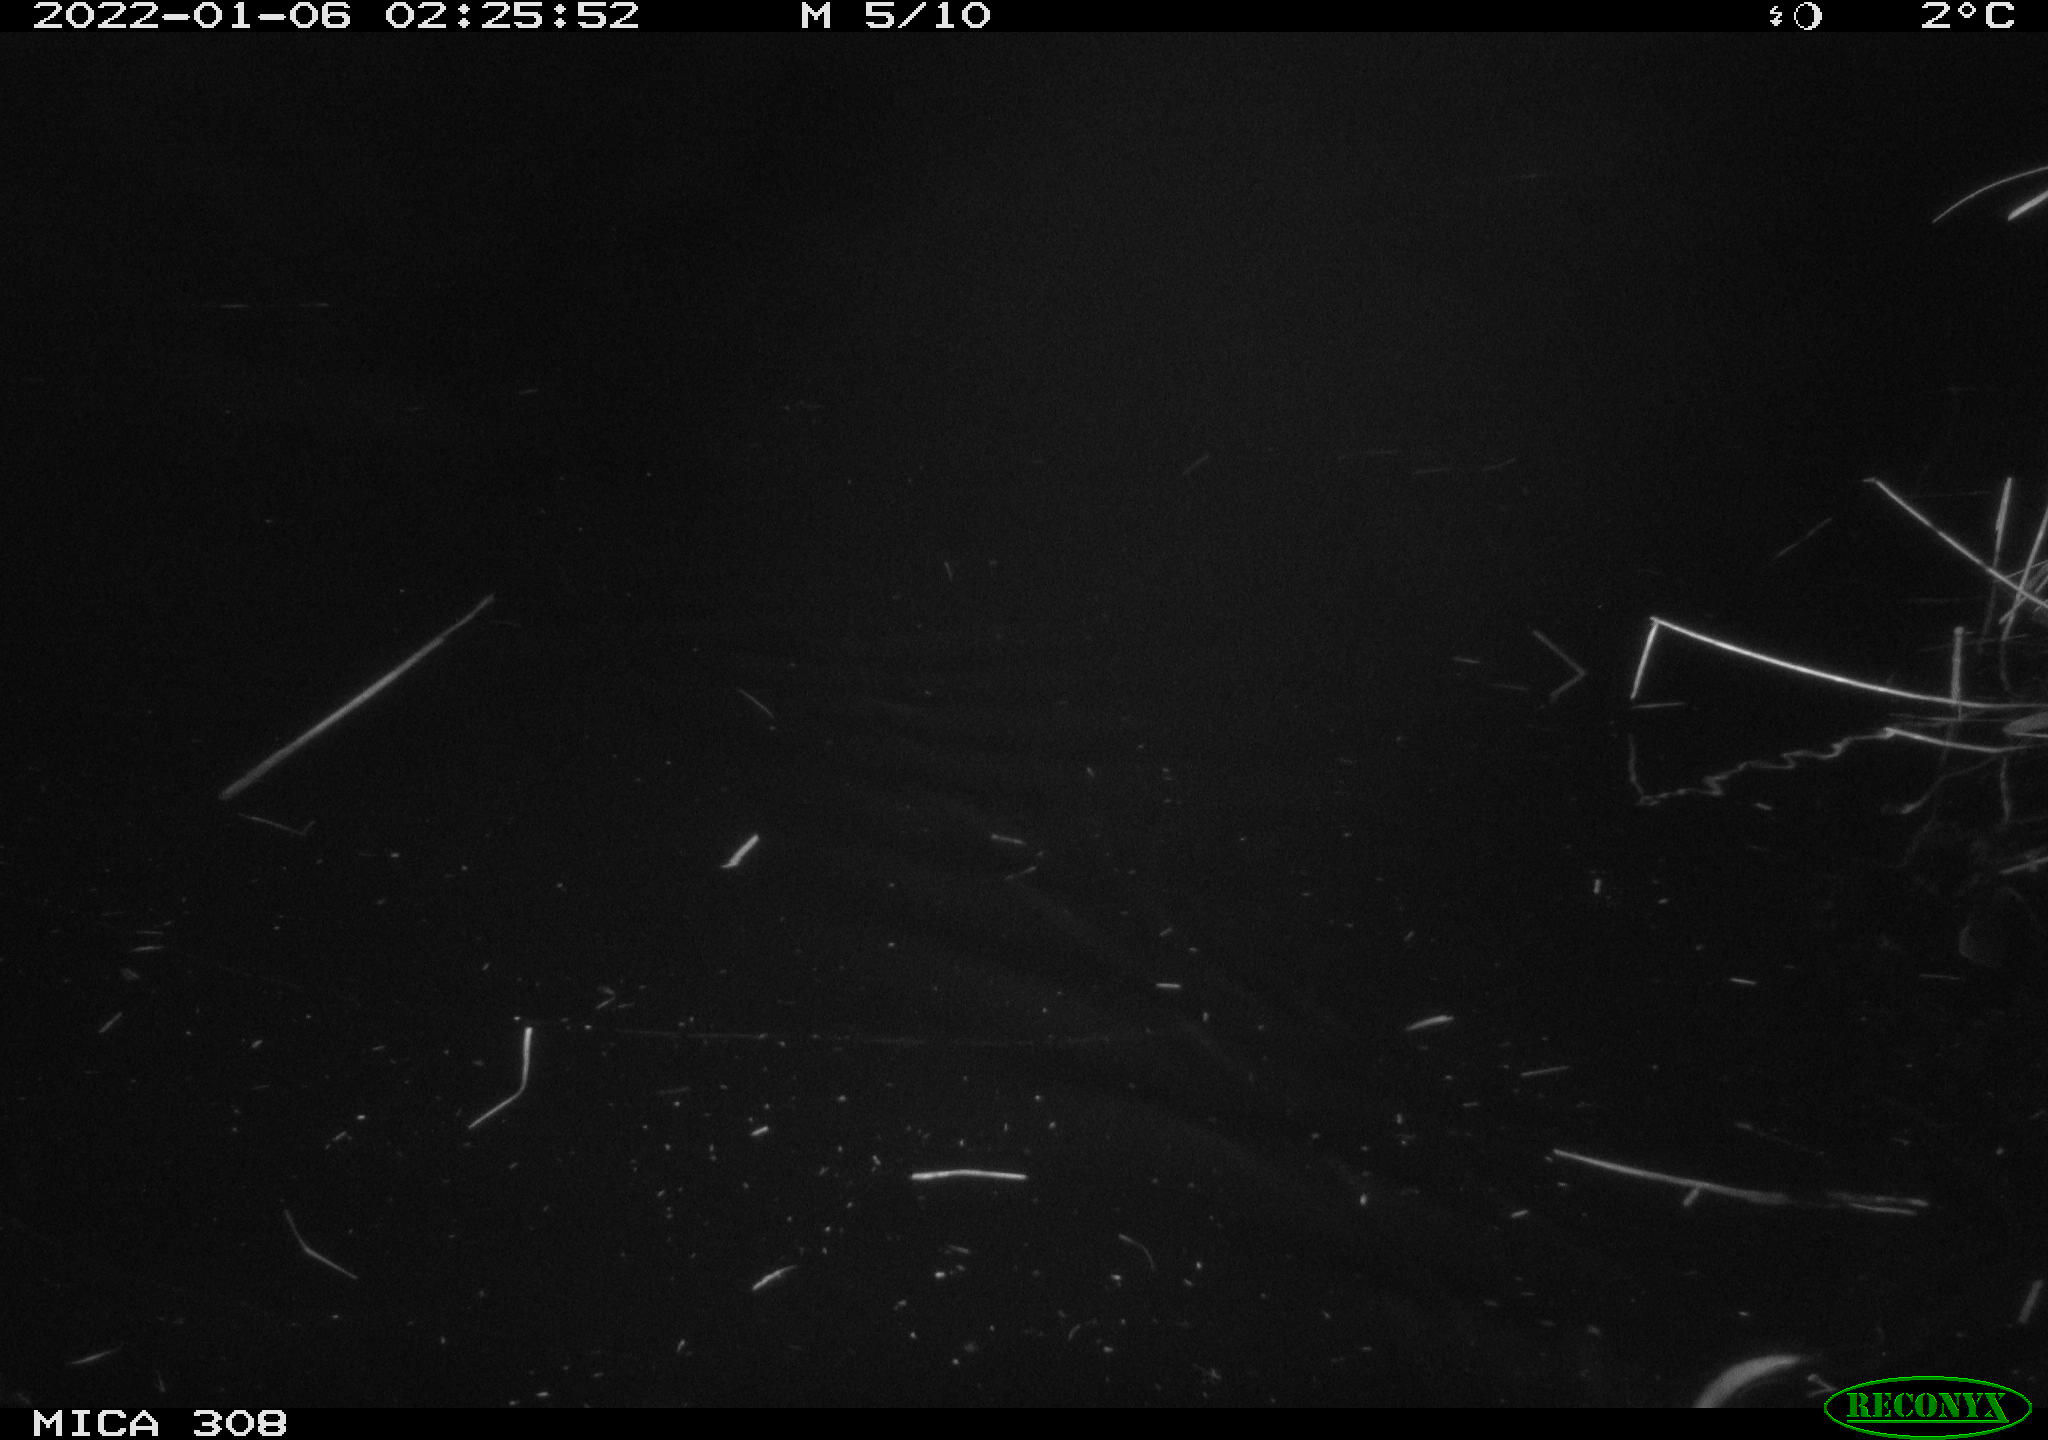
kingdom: Animalia
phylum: Chordata
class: Mammalia
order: Rodentia
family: Cricetidae
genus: Ondatra
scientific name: Ondatra zibethicus
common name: Muskrat
